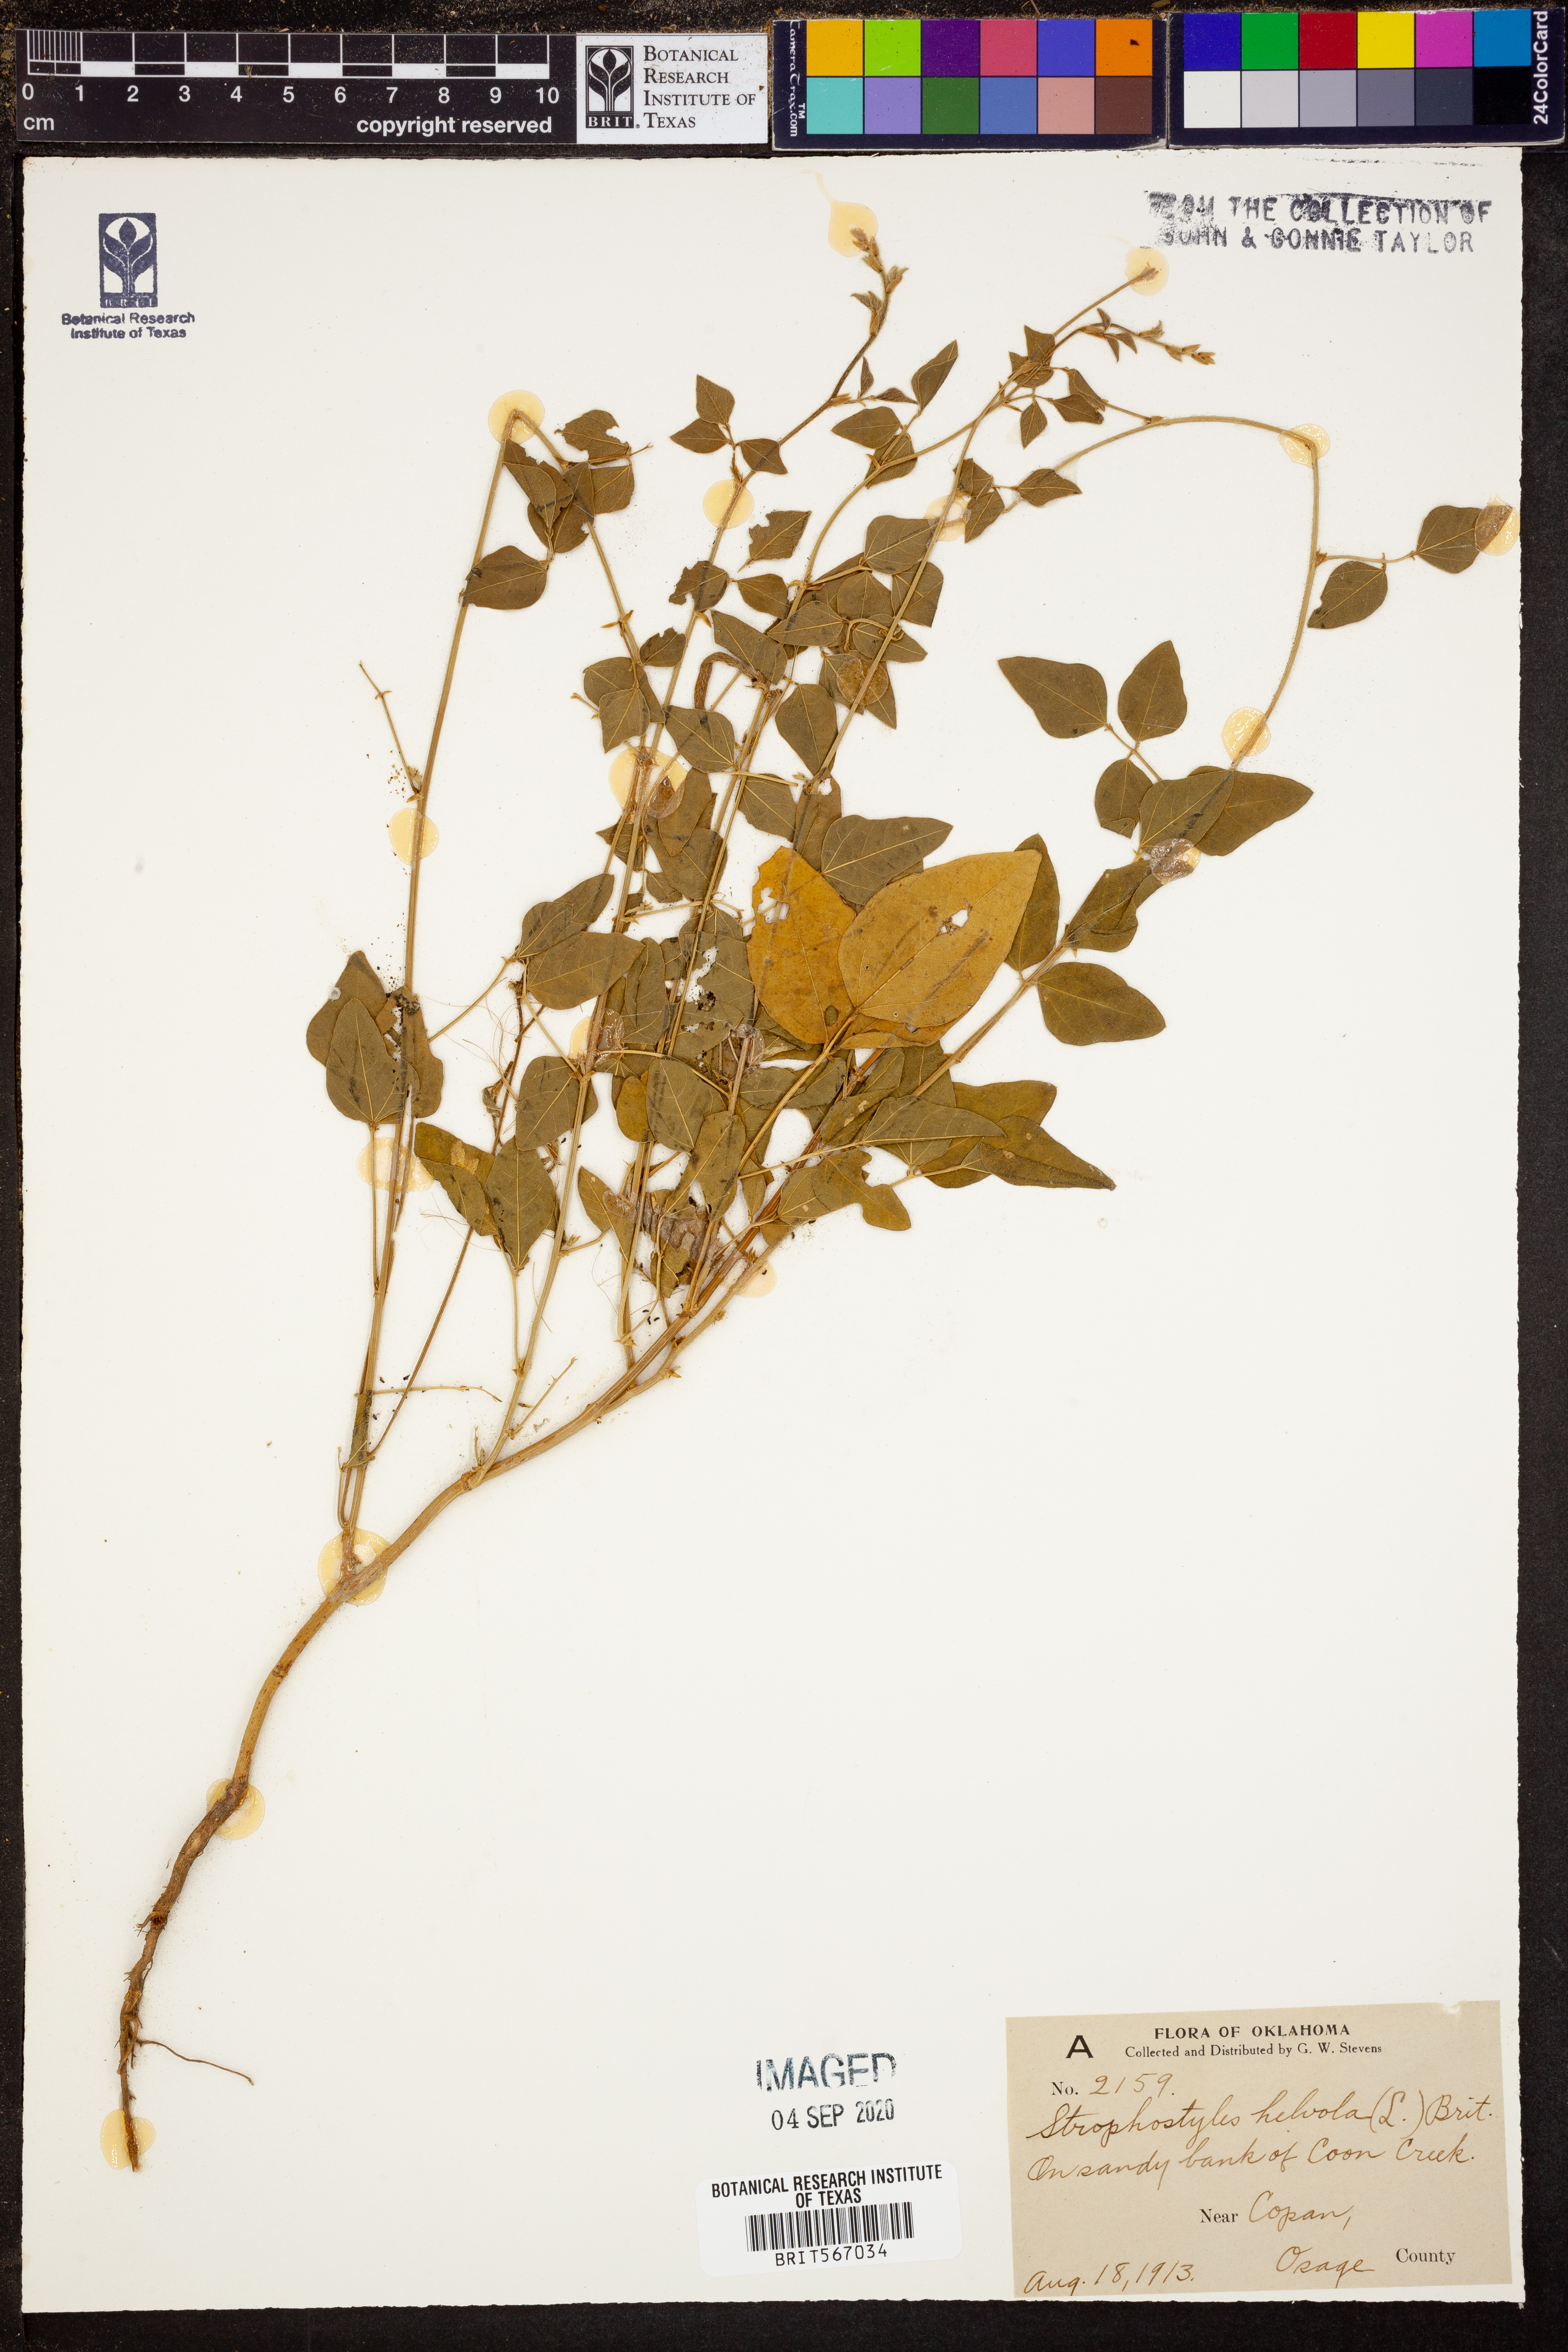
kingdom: Plantae
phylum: Tracheophyta
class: Magnoliopsida
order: Fabales
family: Fabaceae
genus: Strophostyles
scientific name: Strophostyles helvola
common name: Trailing wild bean
